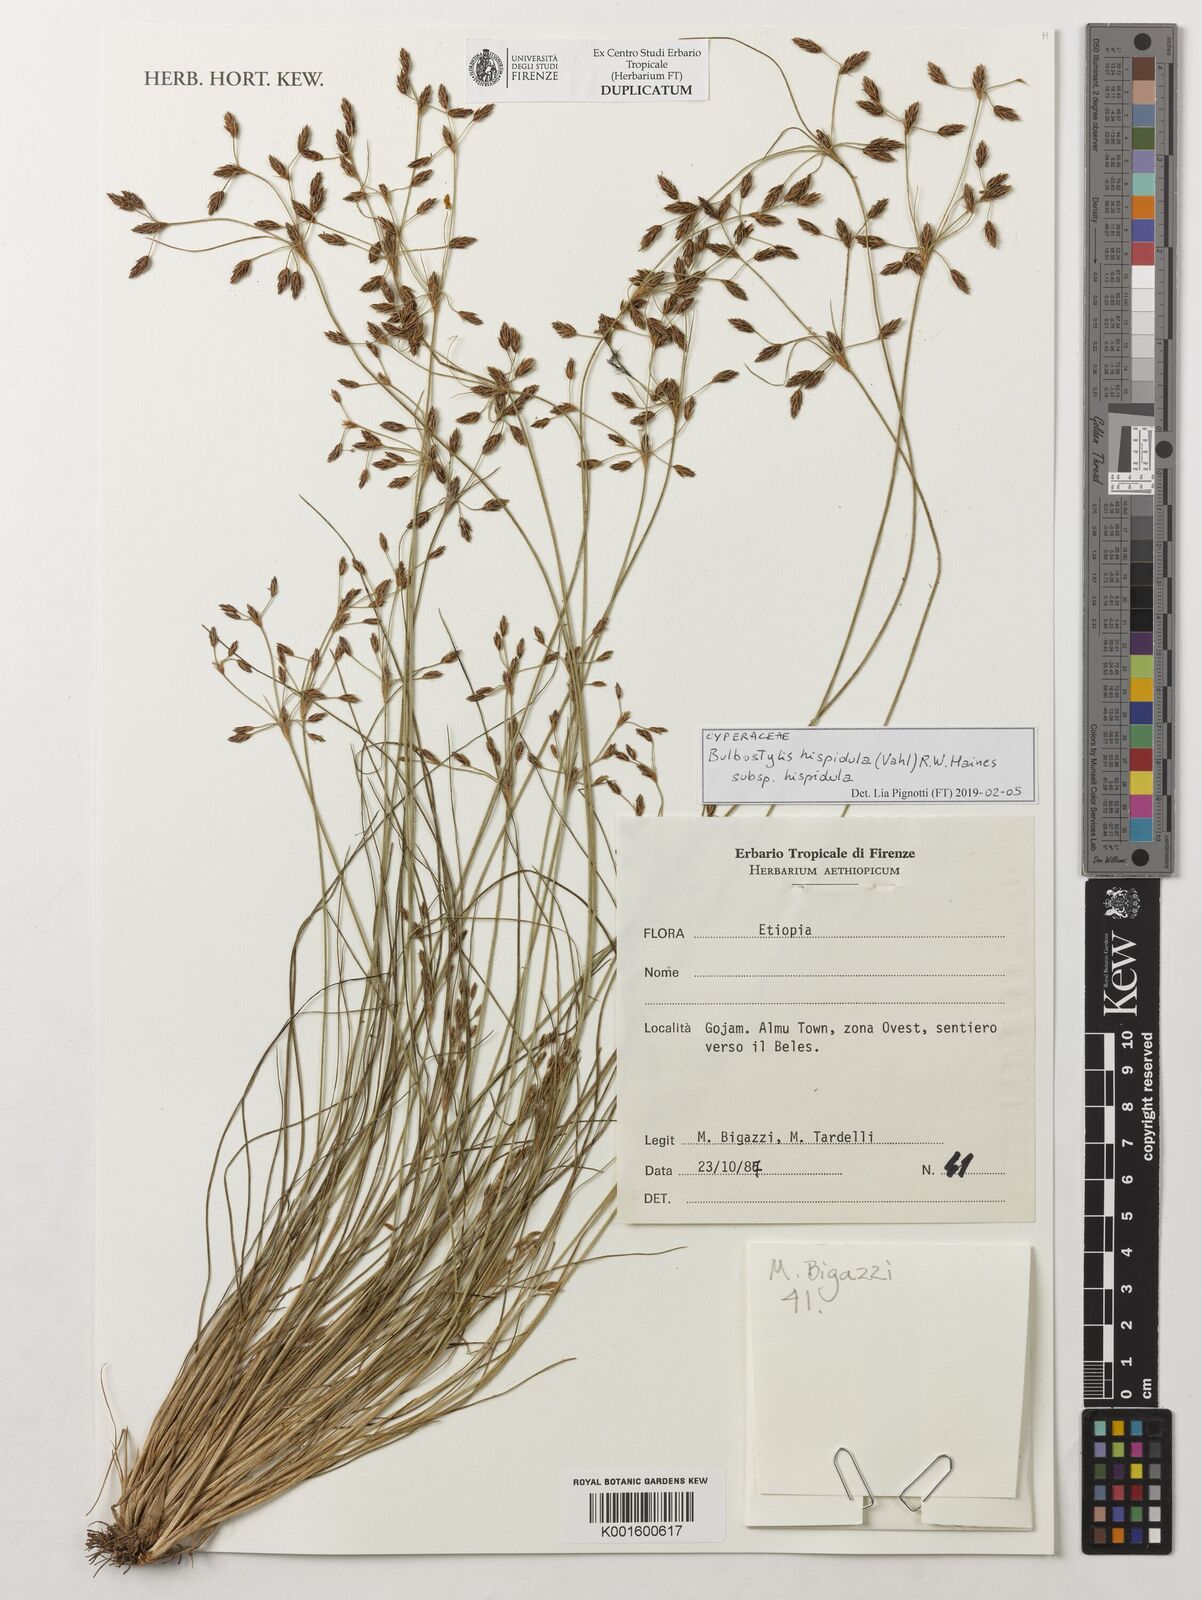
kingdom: Plantae
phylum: Tracheophyta
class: Liliopsida
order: Poales
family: Cyperaceae
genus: Bulbostylis
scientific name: Bulbostylis hispidula
